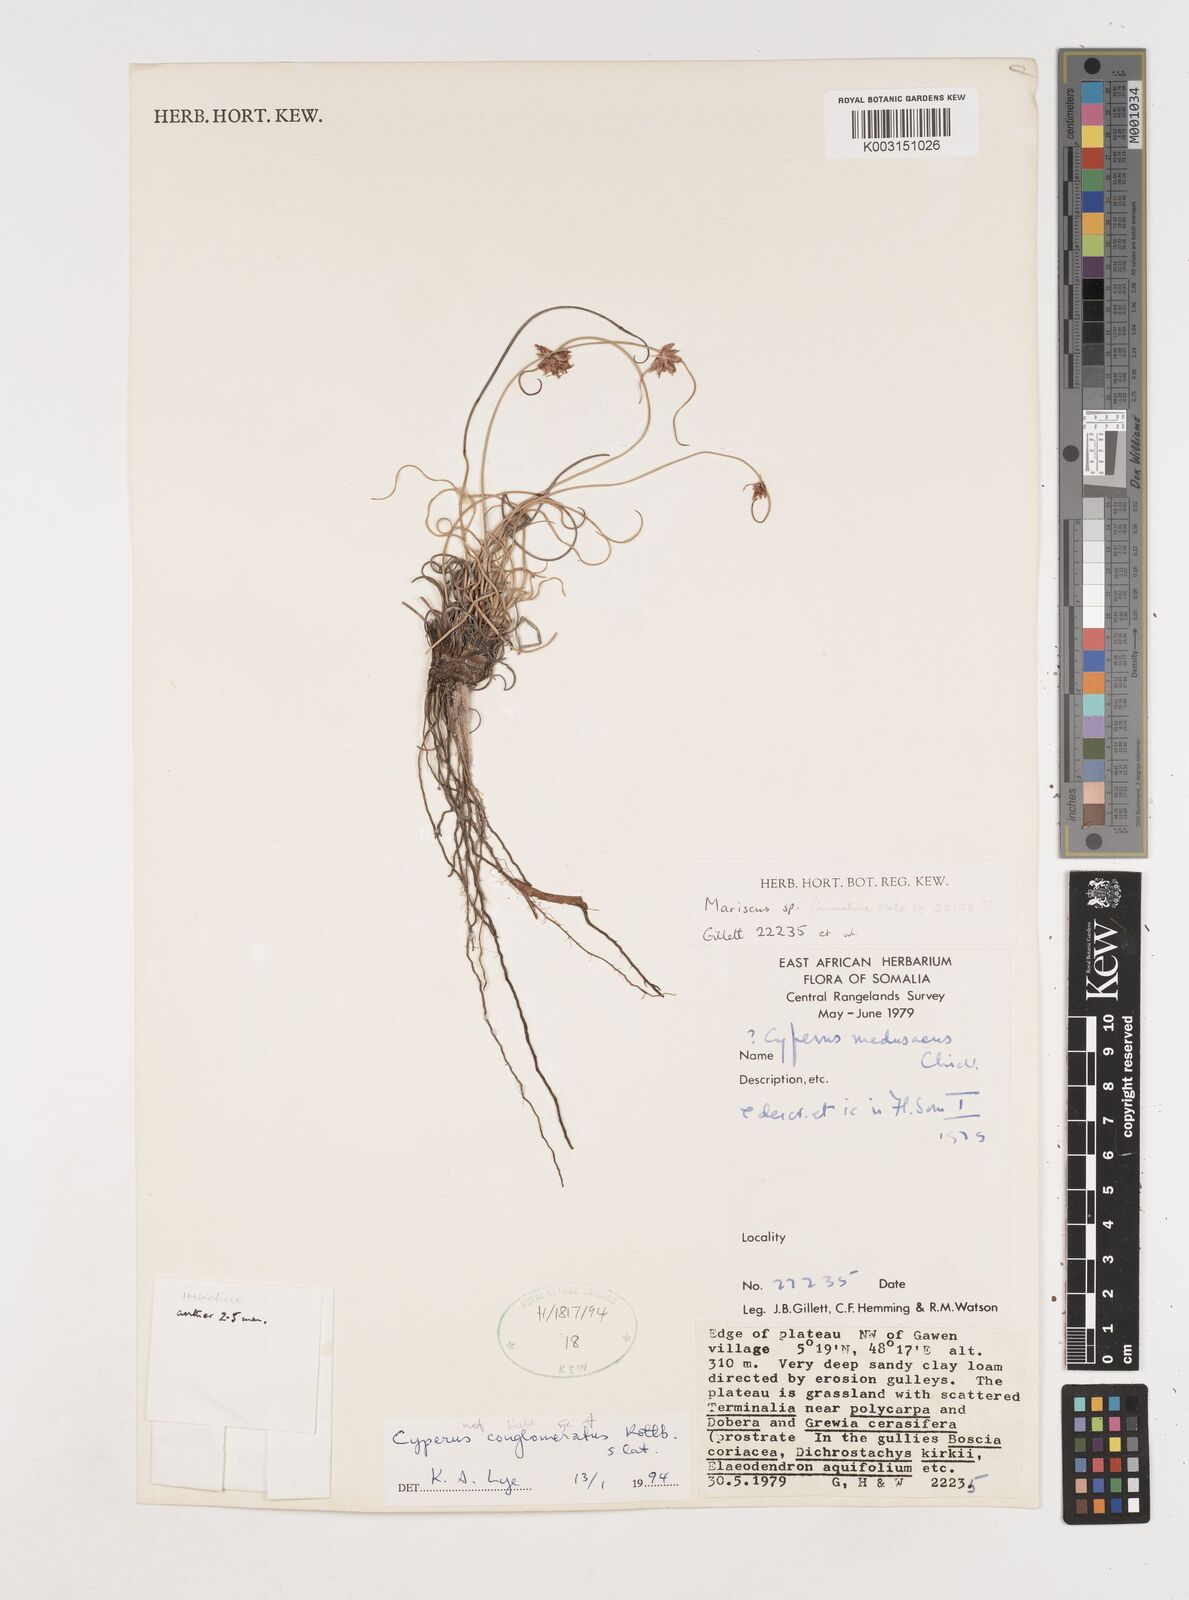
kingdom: Plantae
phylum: Tracheophyta
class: Liliopsida
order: Poales
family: Cyperaceae
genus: Cyperus
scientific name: Cyperus conglomeratus
